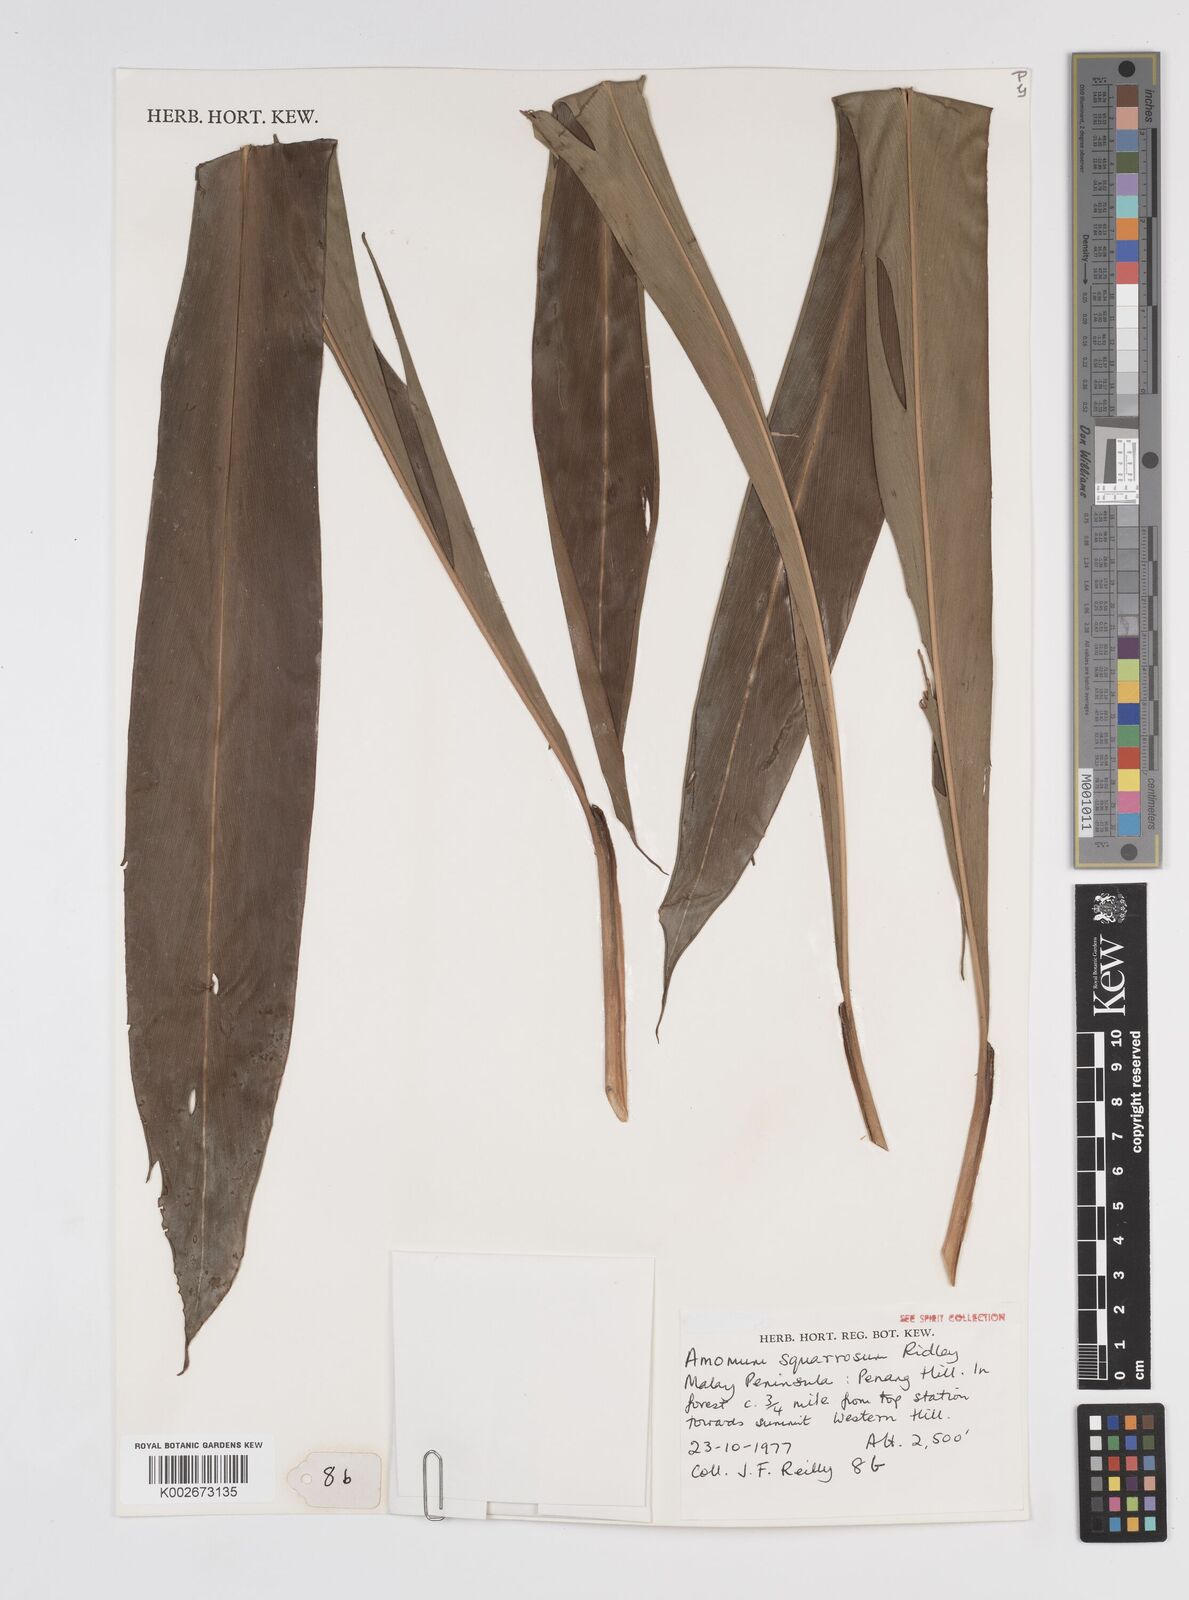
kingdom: Plantae
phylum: Tracheophyta
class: Liliopsida
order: Zingiberales
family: Zingiberaceae
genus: Conamomum
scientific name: Conamomum squarrosum
